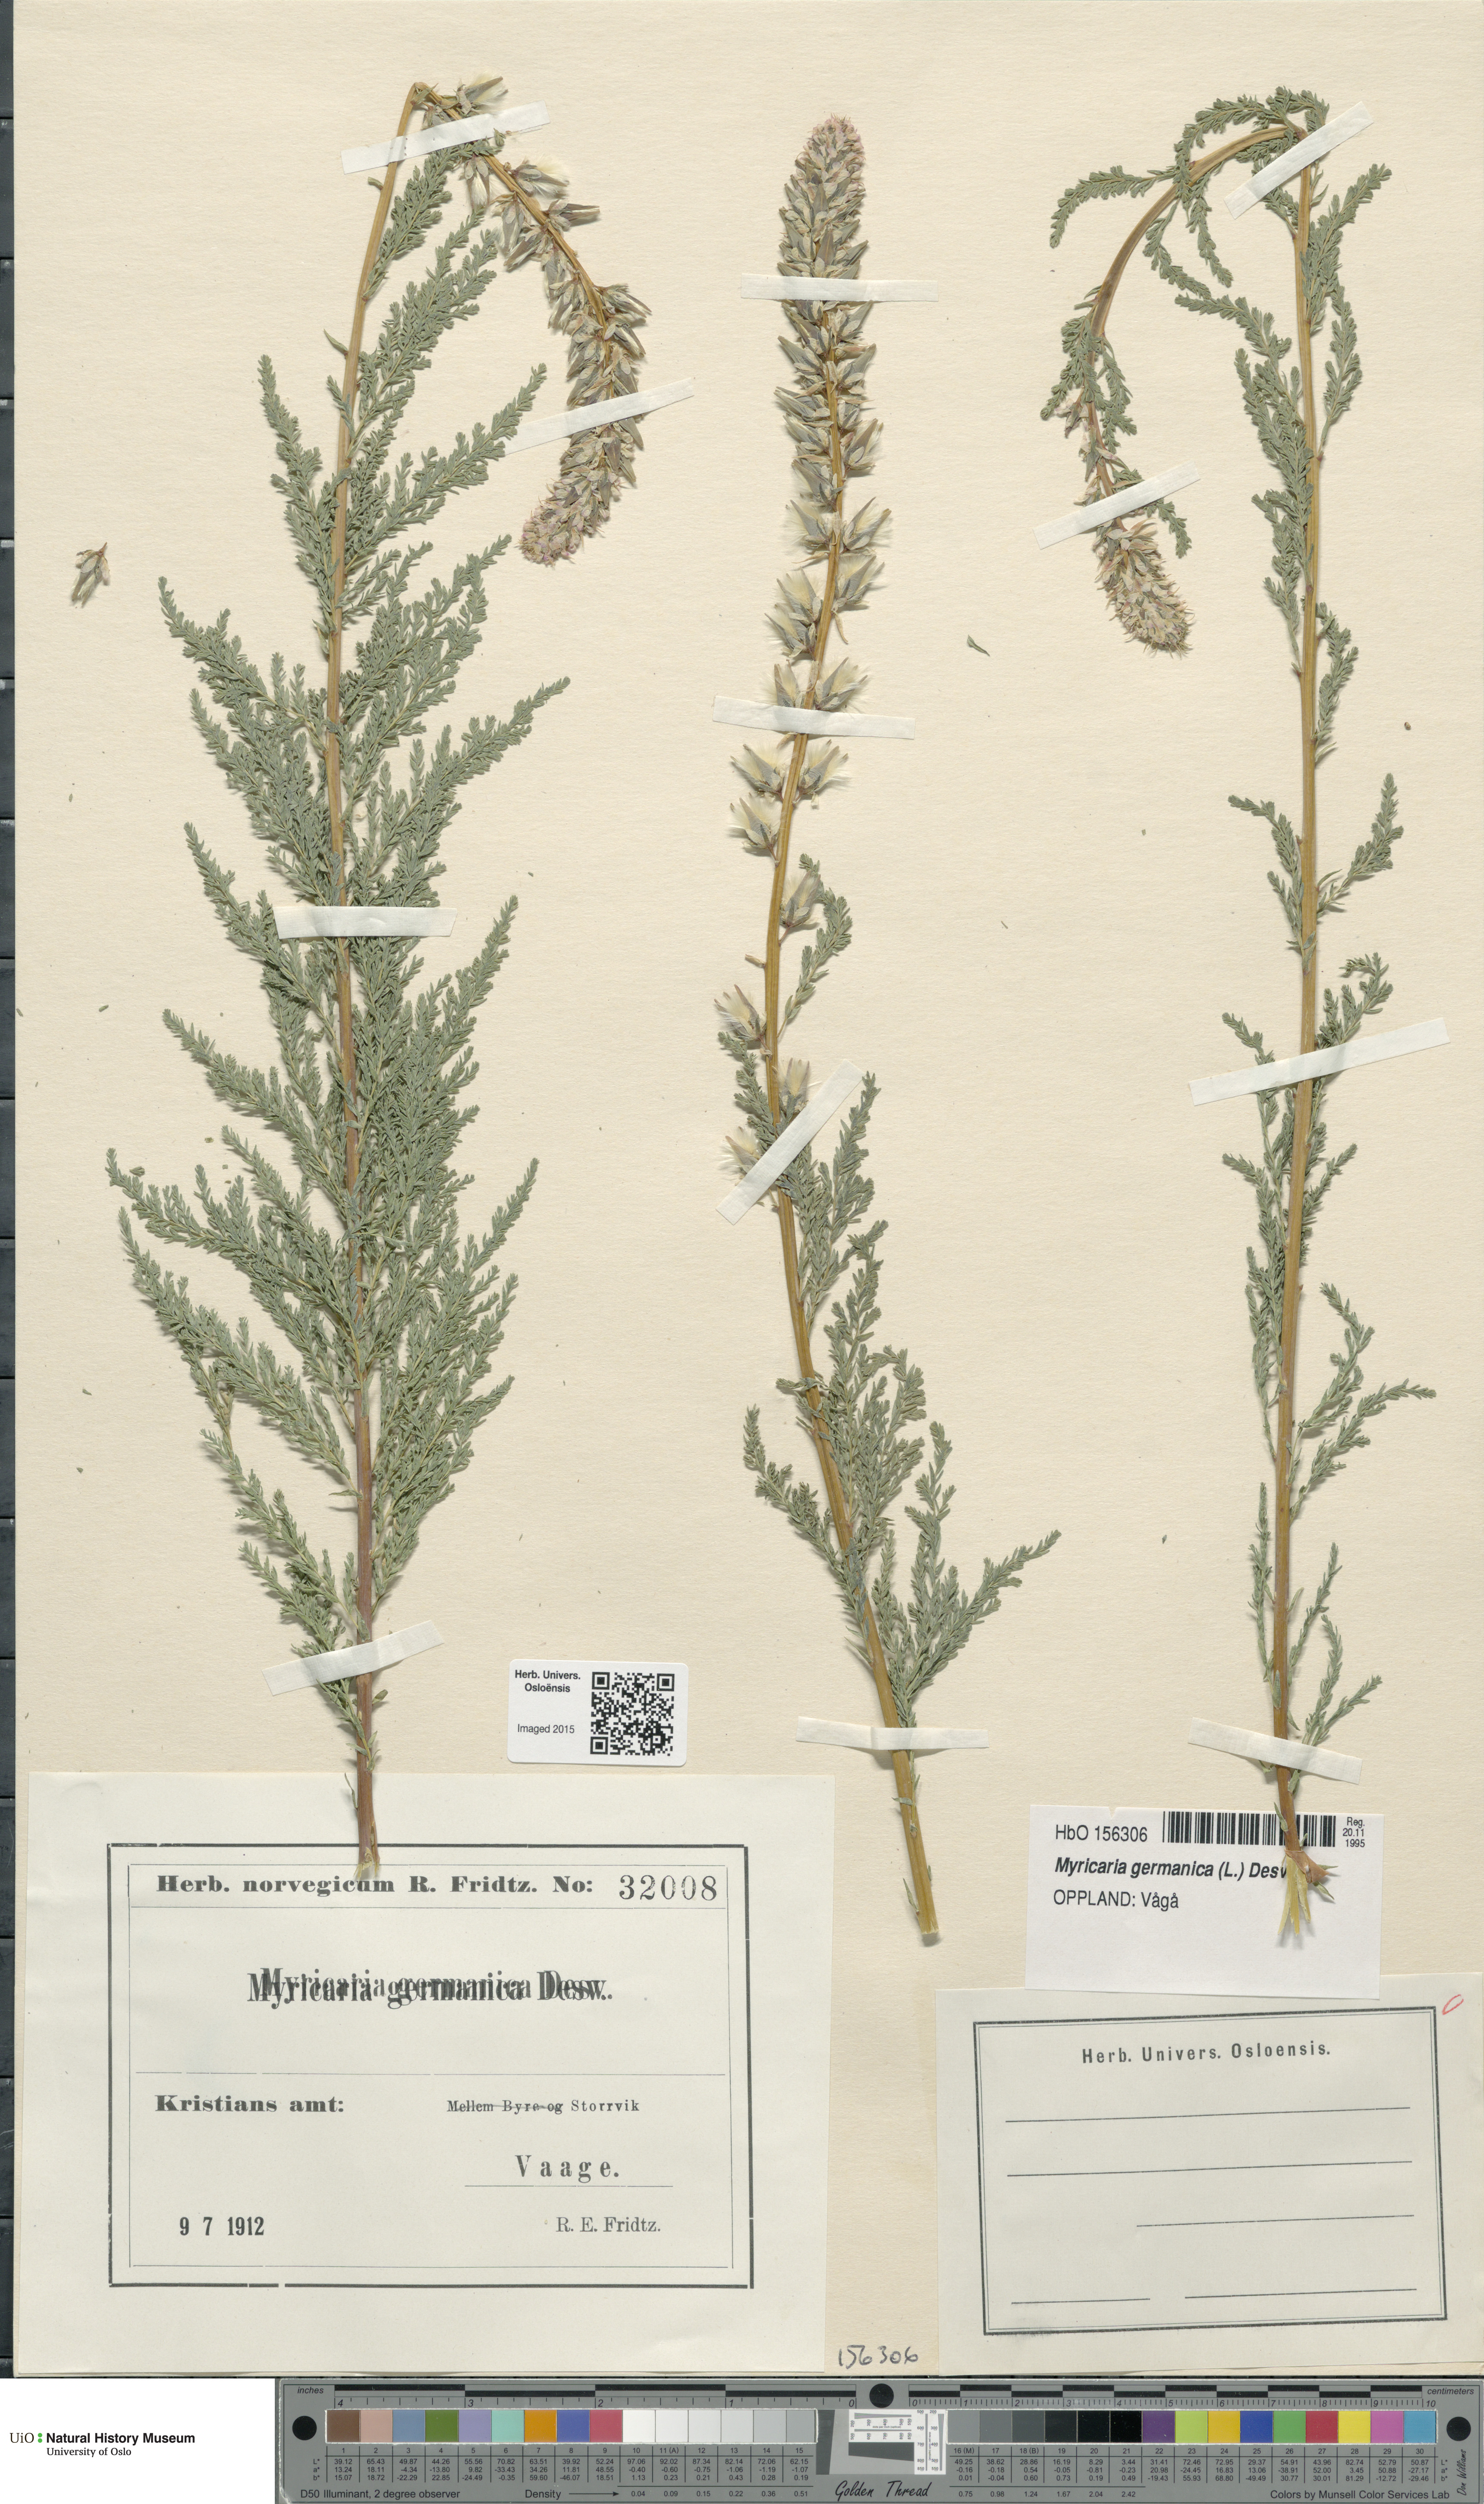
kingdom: Plantae
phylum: Tracheophyta
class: Magnoliopsida
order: Caryophyllales
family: Tamaricaceae
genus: Myricaria
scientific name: Myricaria germanica
